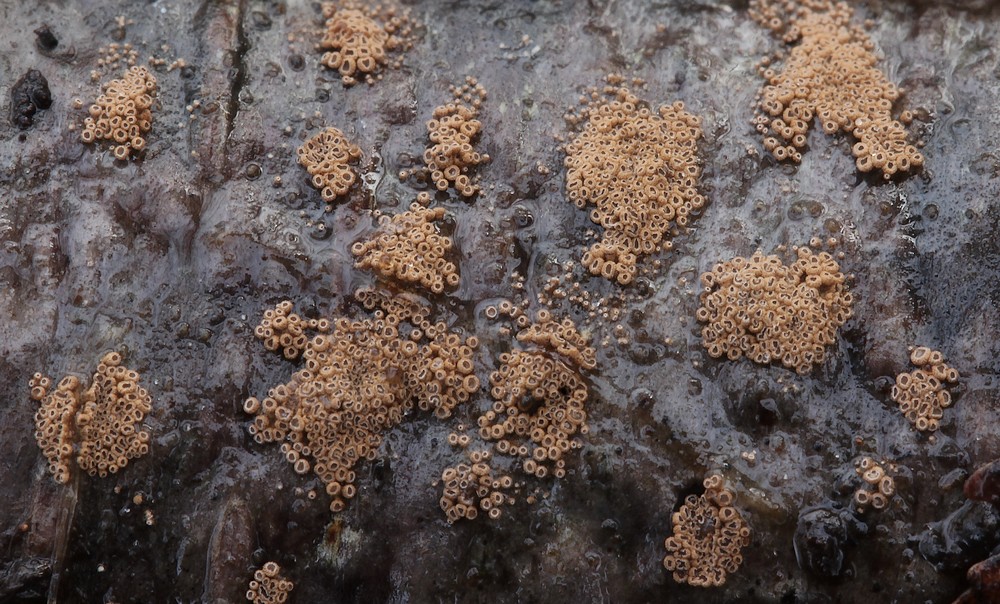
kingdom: Fungi
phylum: Basidiomycota
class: Agaricomycetes
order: Agaricales
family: Niaceae
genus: Merismodes
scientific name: Merismodes anomala
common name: almindelig læderskål
